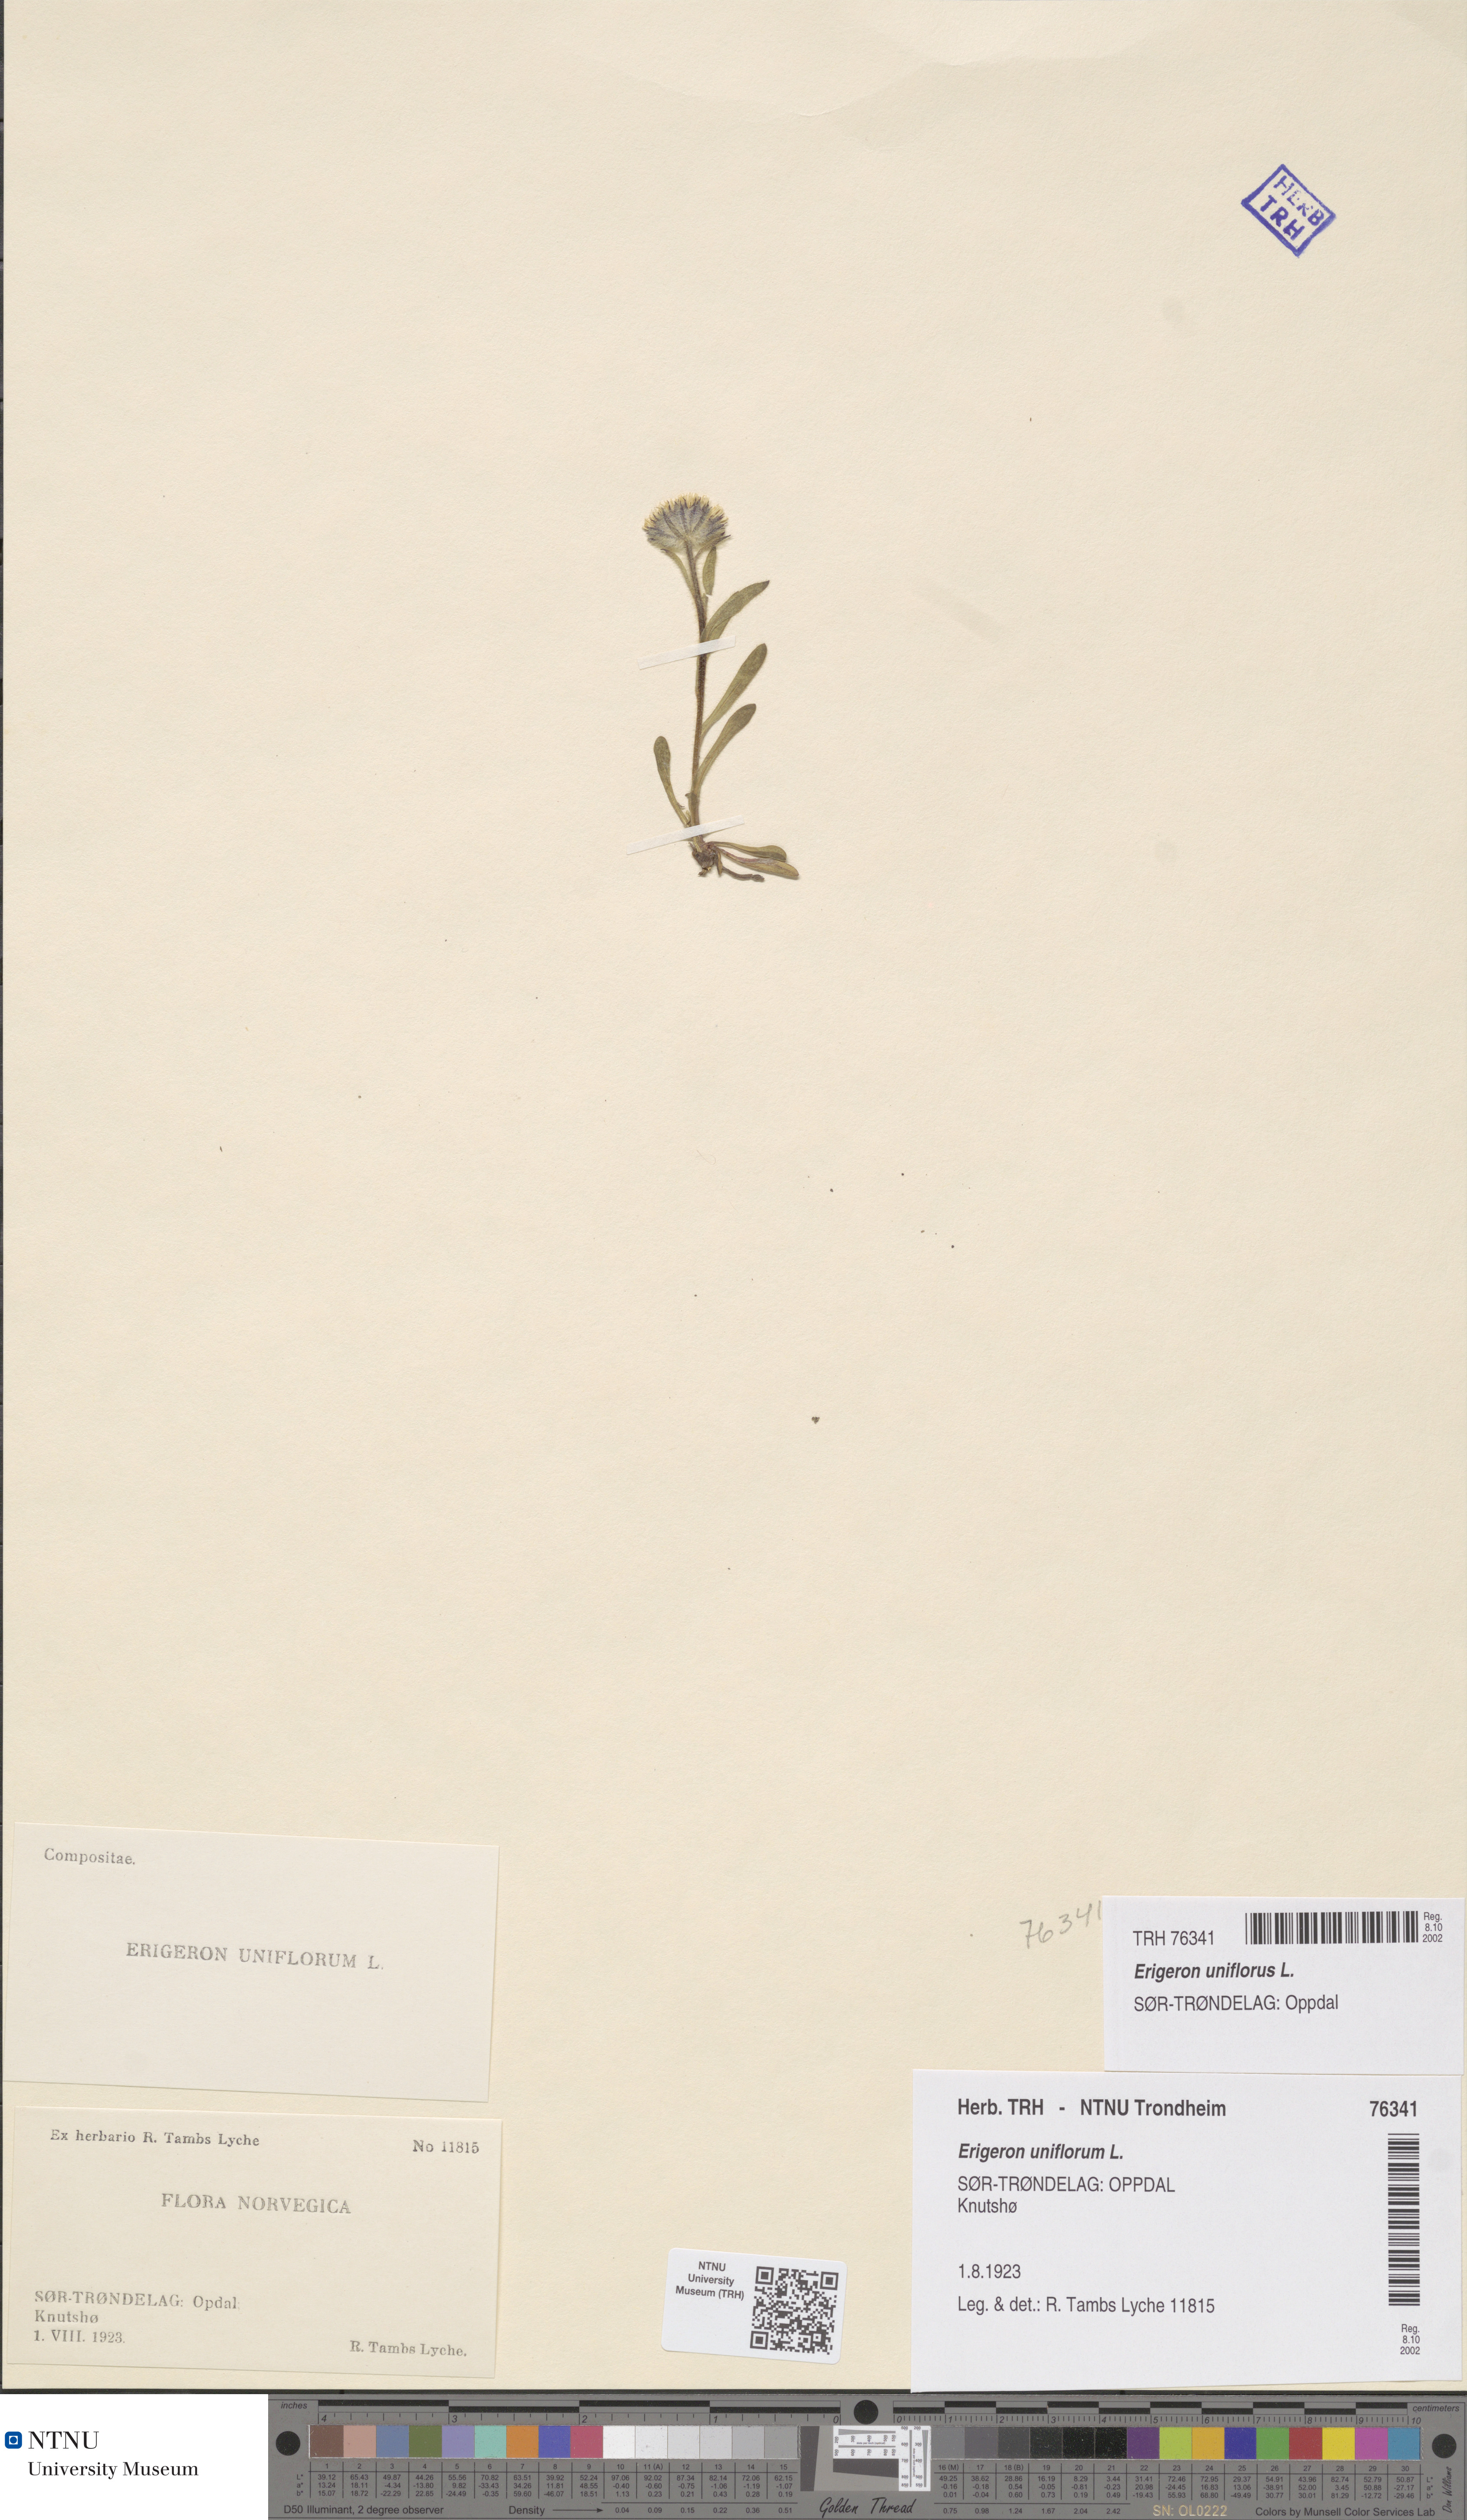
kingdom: Plantae
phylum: Tracheophyta
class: Magnoliopsida
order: Asterales
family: Asteraceae
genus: Erigeron
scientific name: Erigeron uniflorus
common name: Northern daisy
